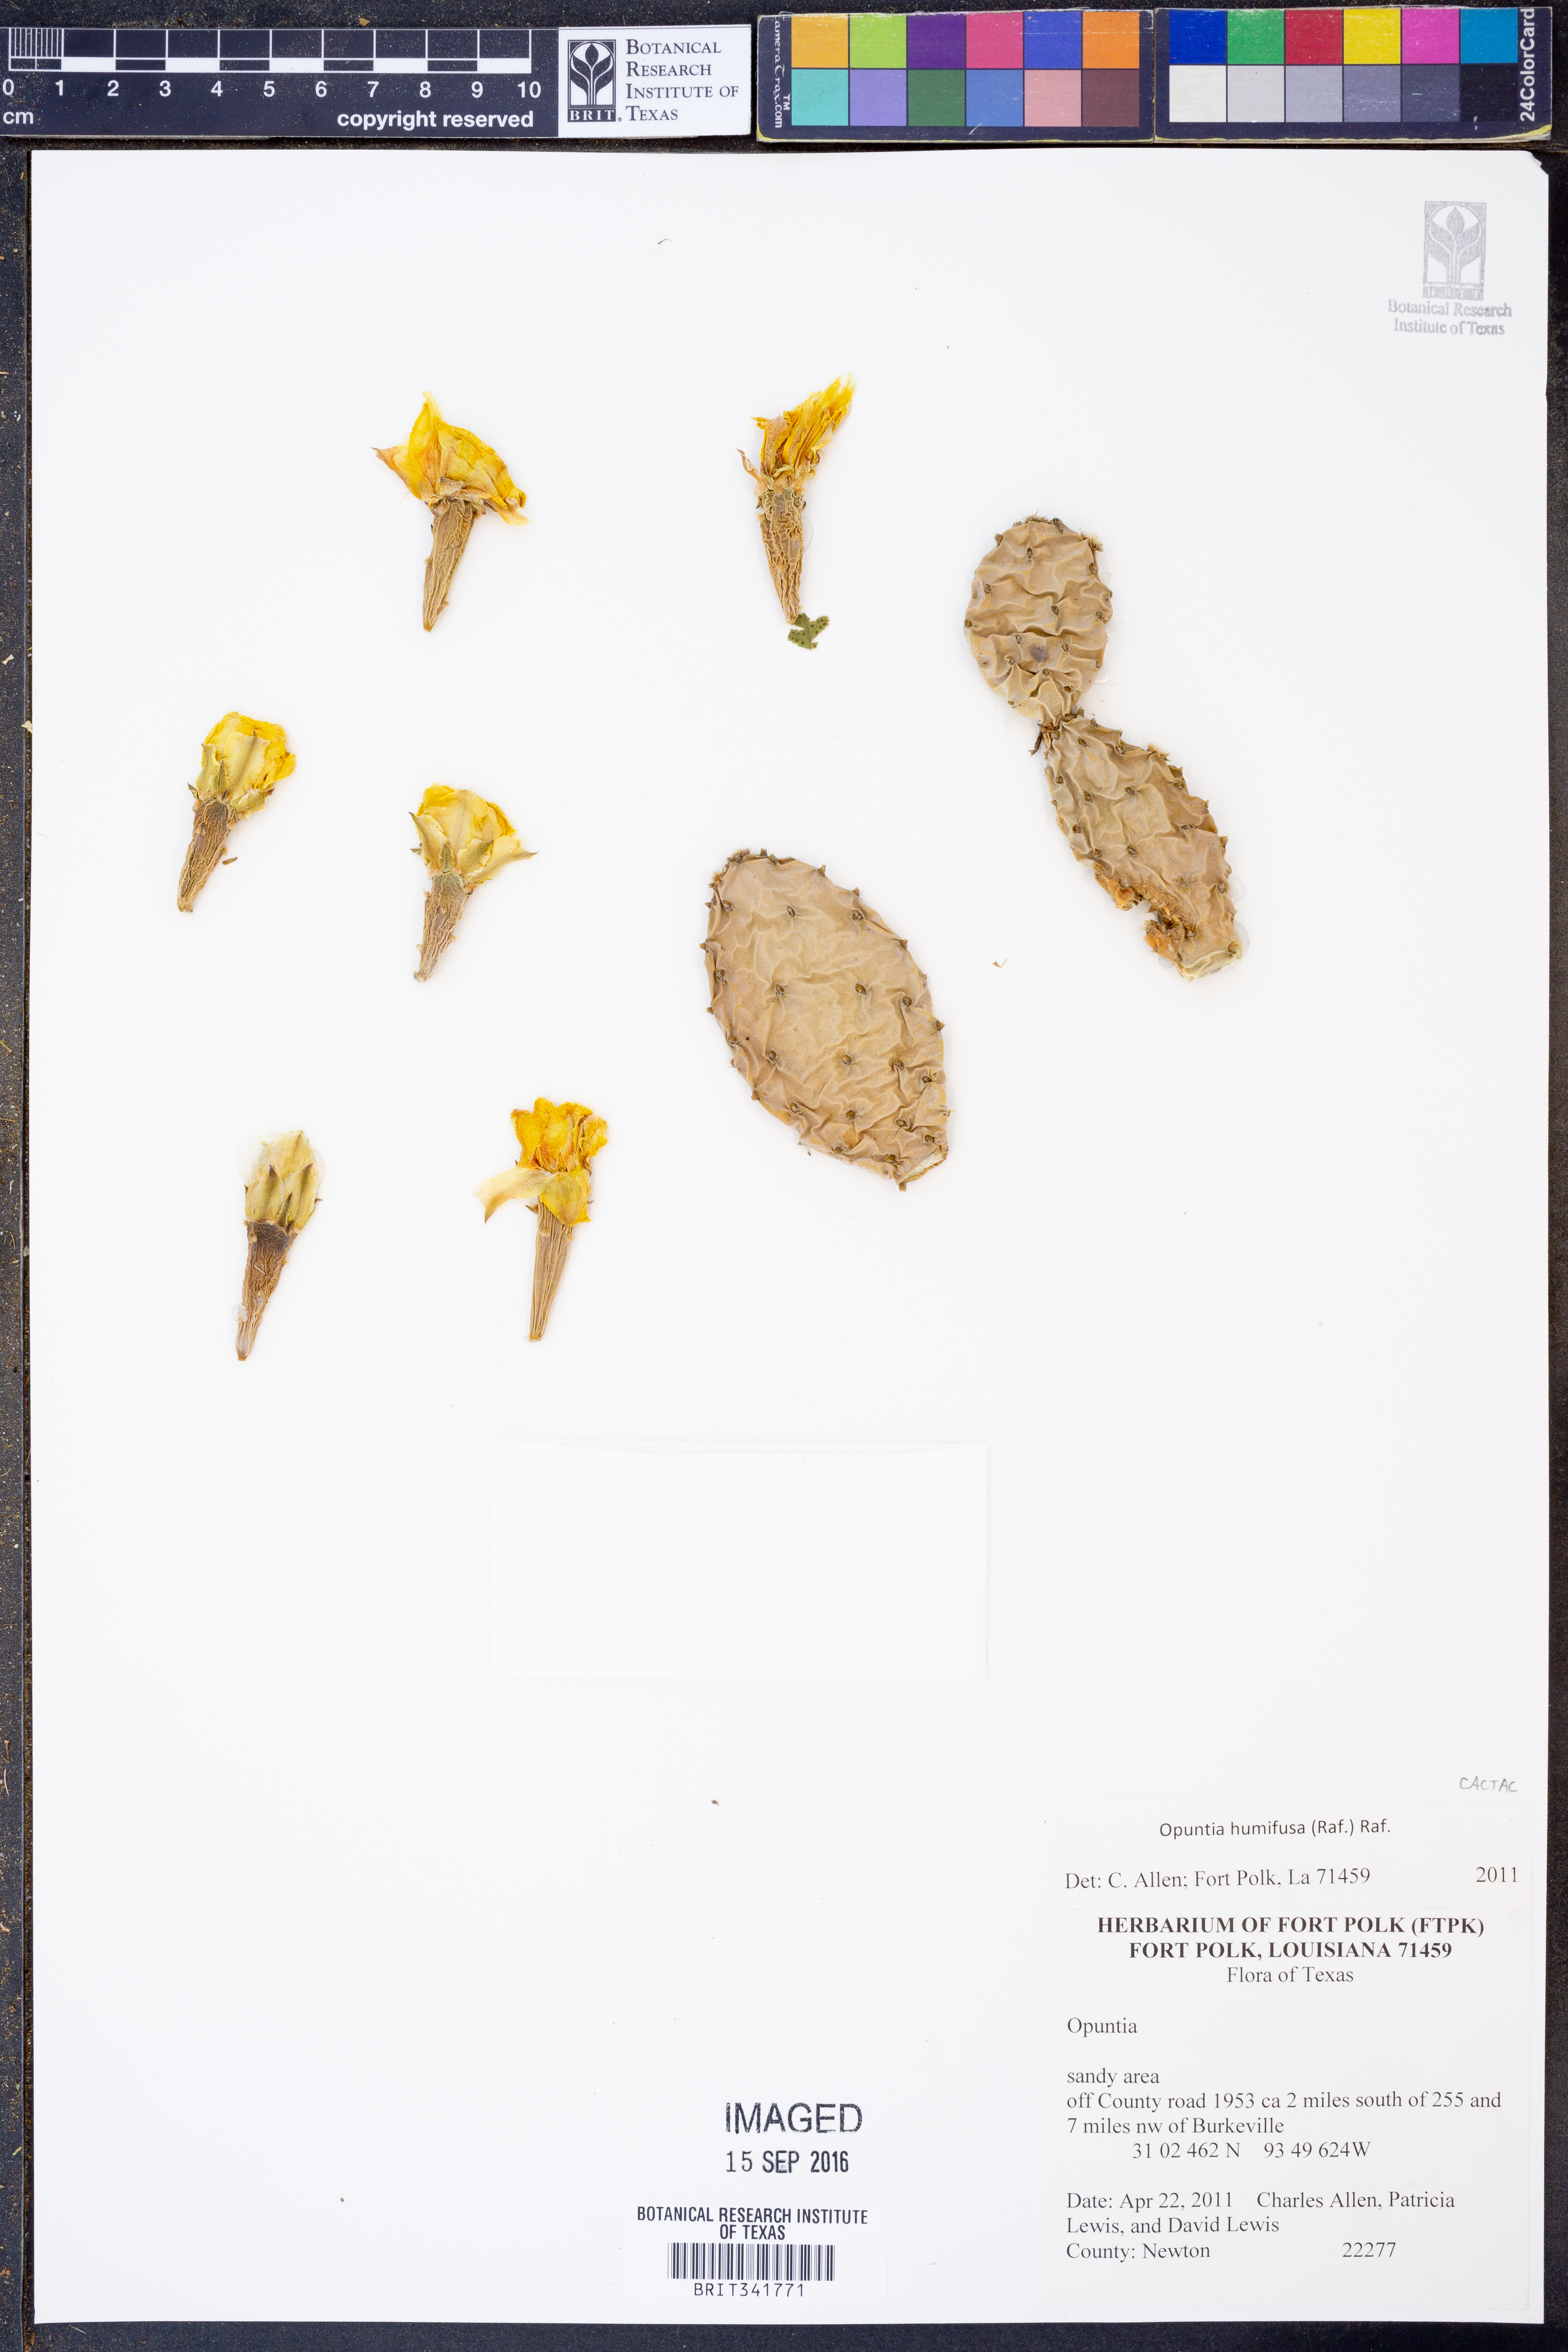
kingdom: Plantae
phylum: Tracheophyta
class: Magnoliopsida
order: Caryophyllales
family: Cactaceae
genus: Opuntia
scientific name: Opuntia humifusa
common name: Eastern prickly-pear
